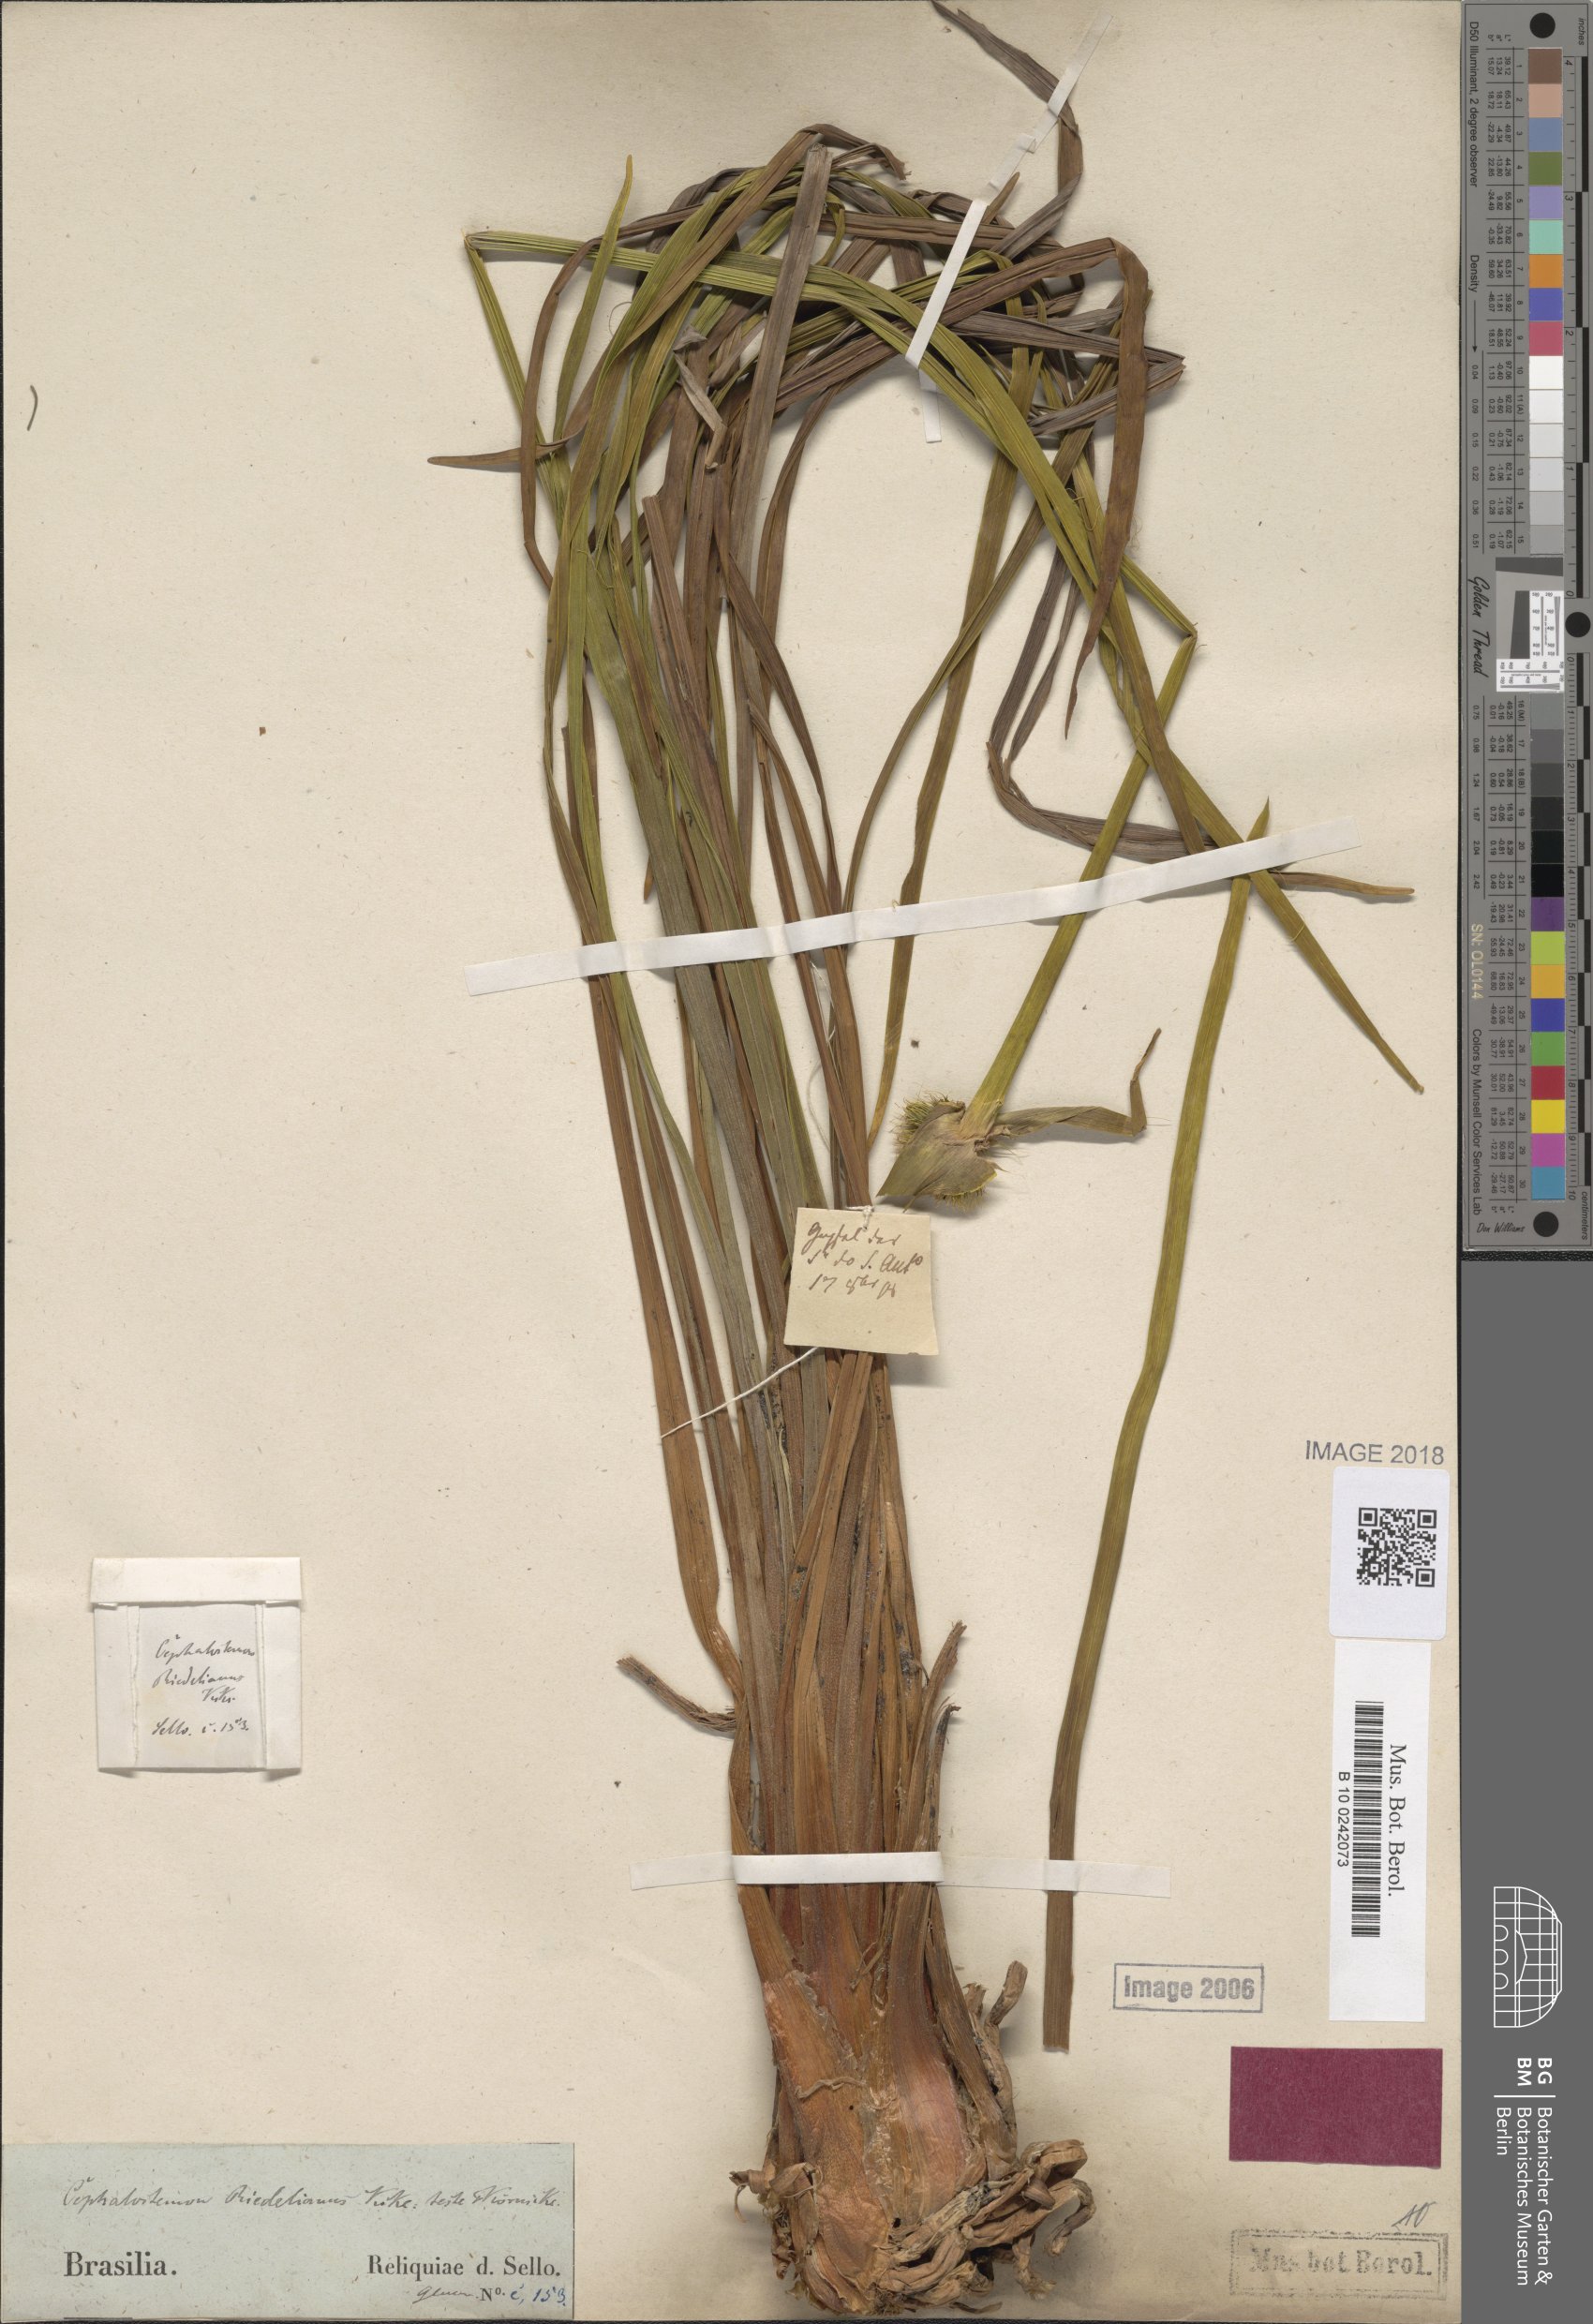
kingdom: Plantae
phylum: Tracheophyta
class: Liliopsida
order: Poales
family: Rapateaceae
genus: Cephalostemon
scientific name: Cephalostemon riedelianus
